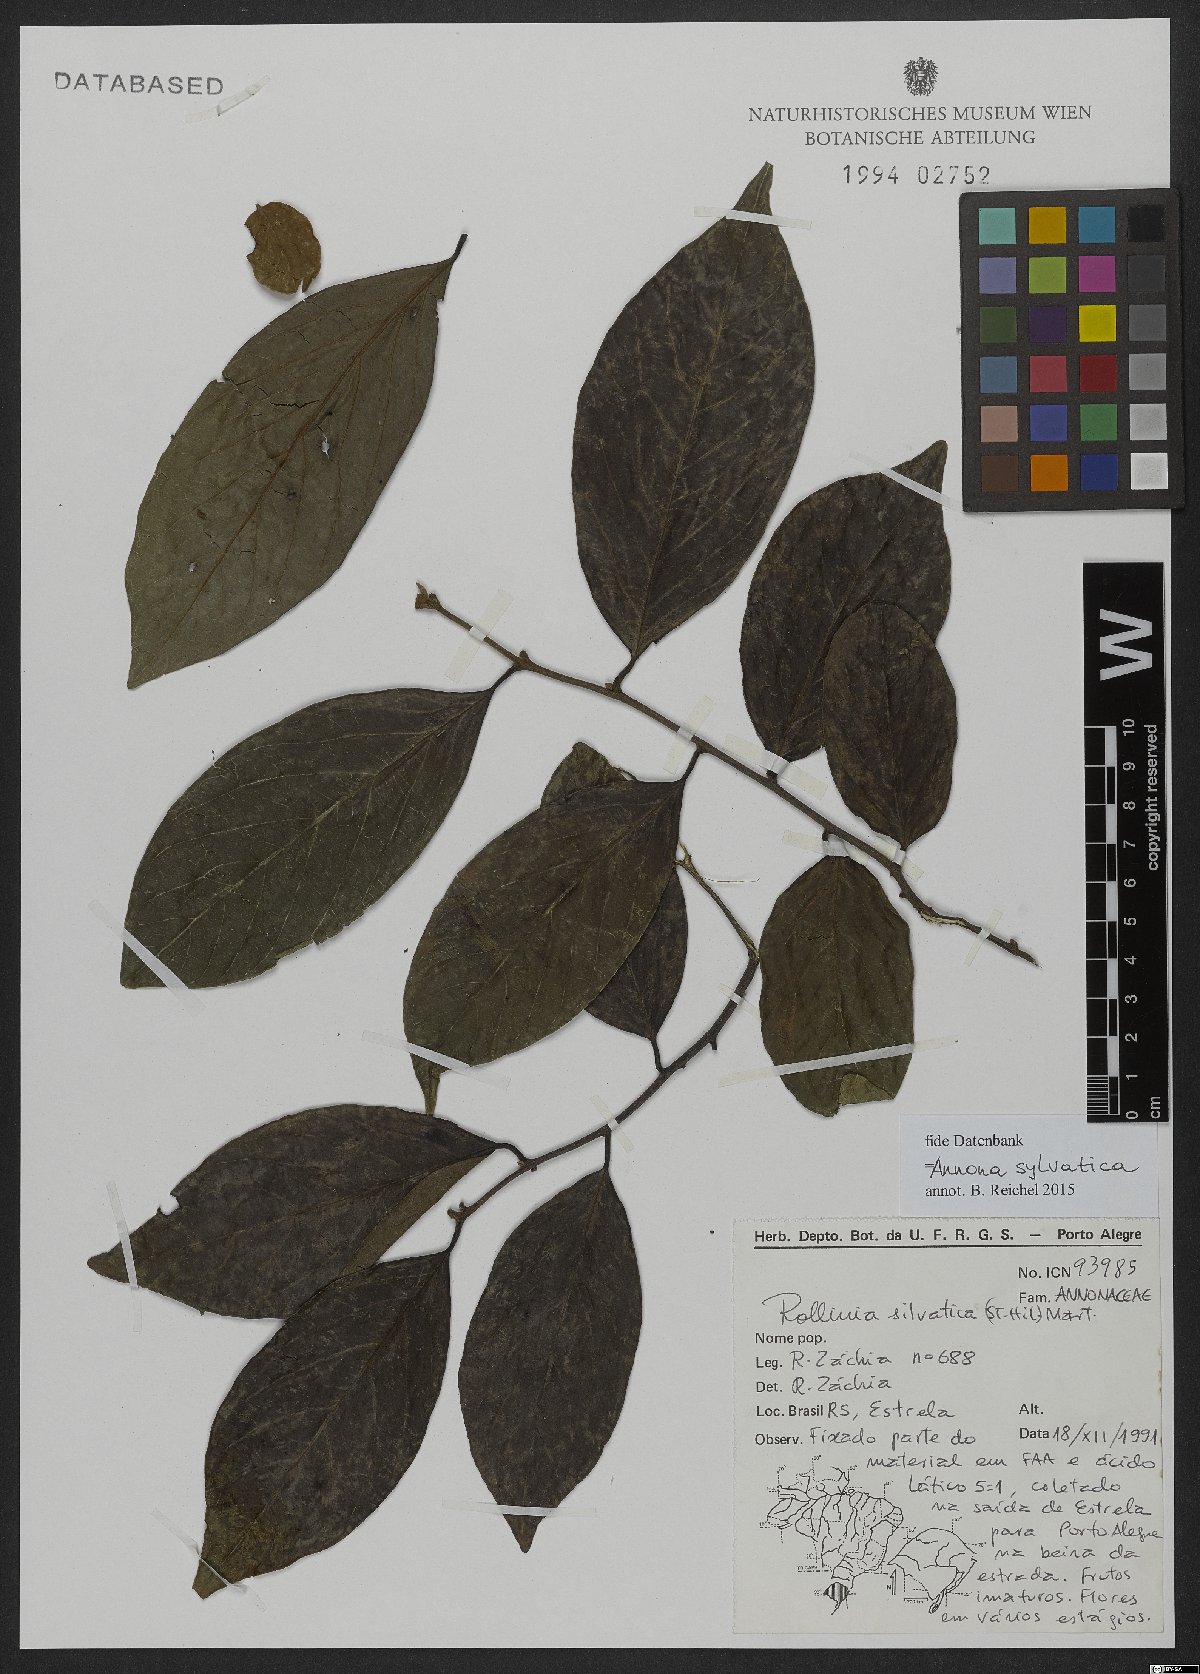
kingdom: Plantae
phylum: Tracheophyta
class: Magnoliopsida
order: Magnoliales
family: Annonaceae
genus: Annona
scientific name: Annona sylvatica
